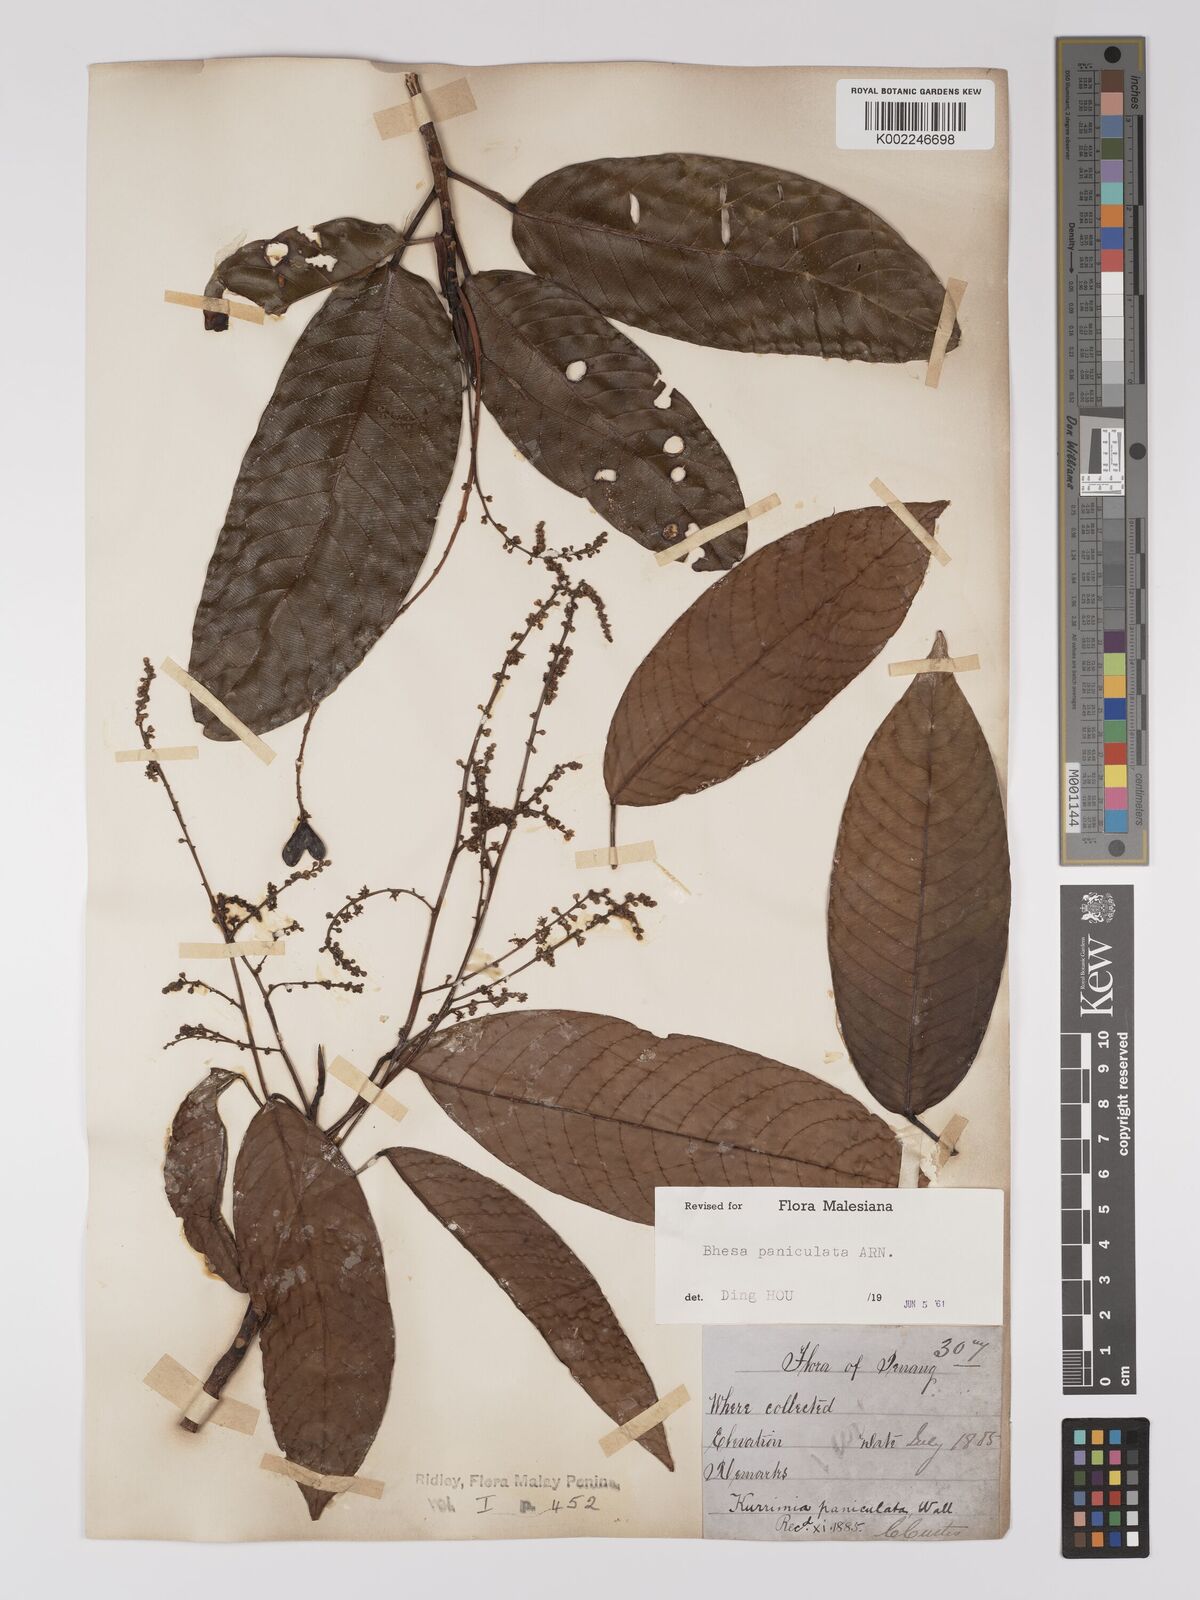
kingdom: Plantae
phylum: Tracheophyta
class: Magnoliopsida
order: Malpighiales
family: Centroplacaceae
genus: Bhesa
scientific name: Bhesa paniculata
